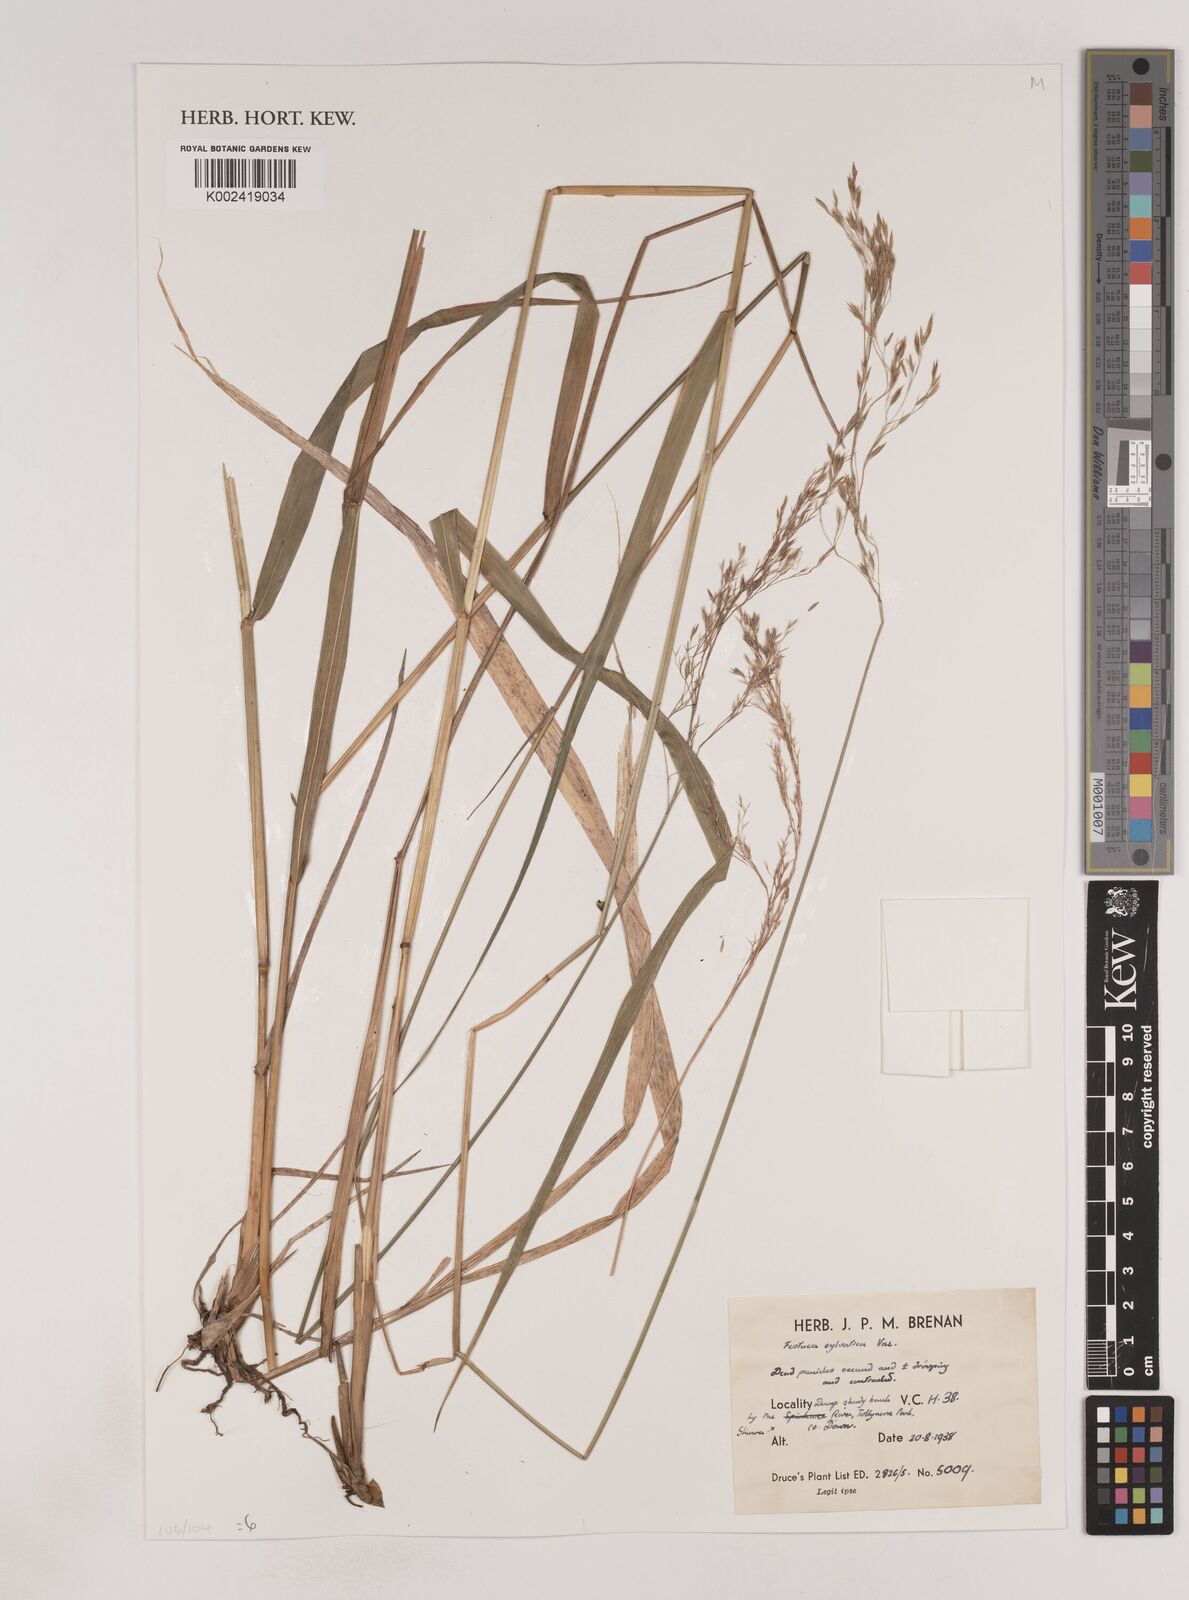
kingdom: Plantae
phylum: Tracheophyta
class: Liliopsida
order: Poales
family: Poaceae
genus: Festuca
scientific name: Festuca drymeja
